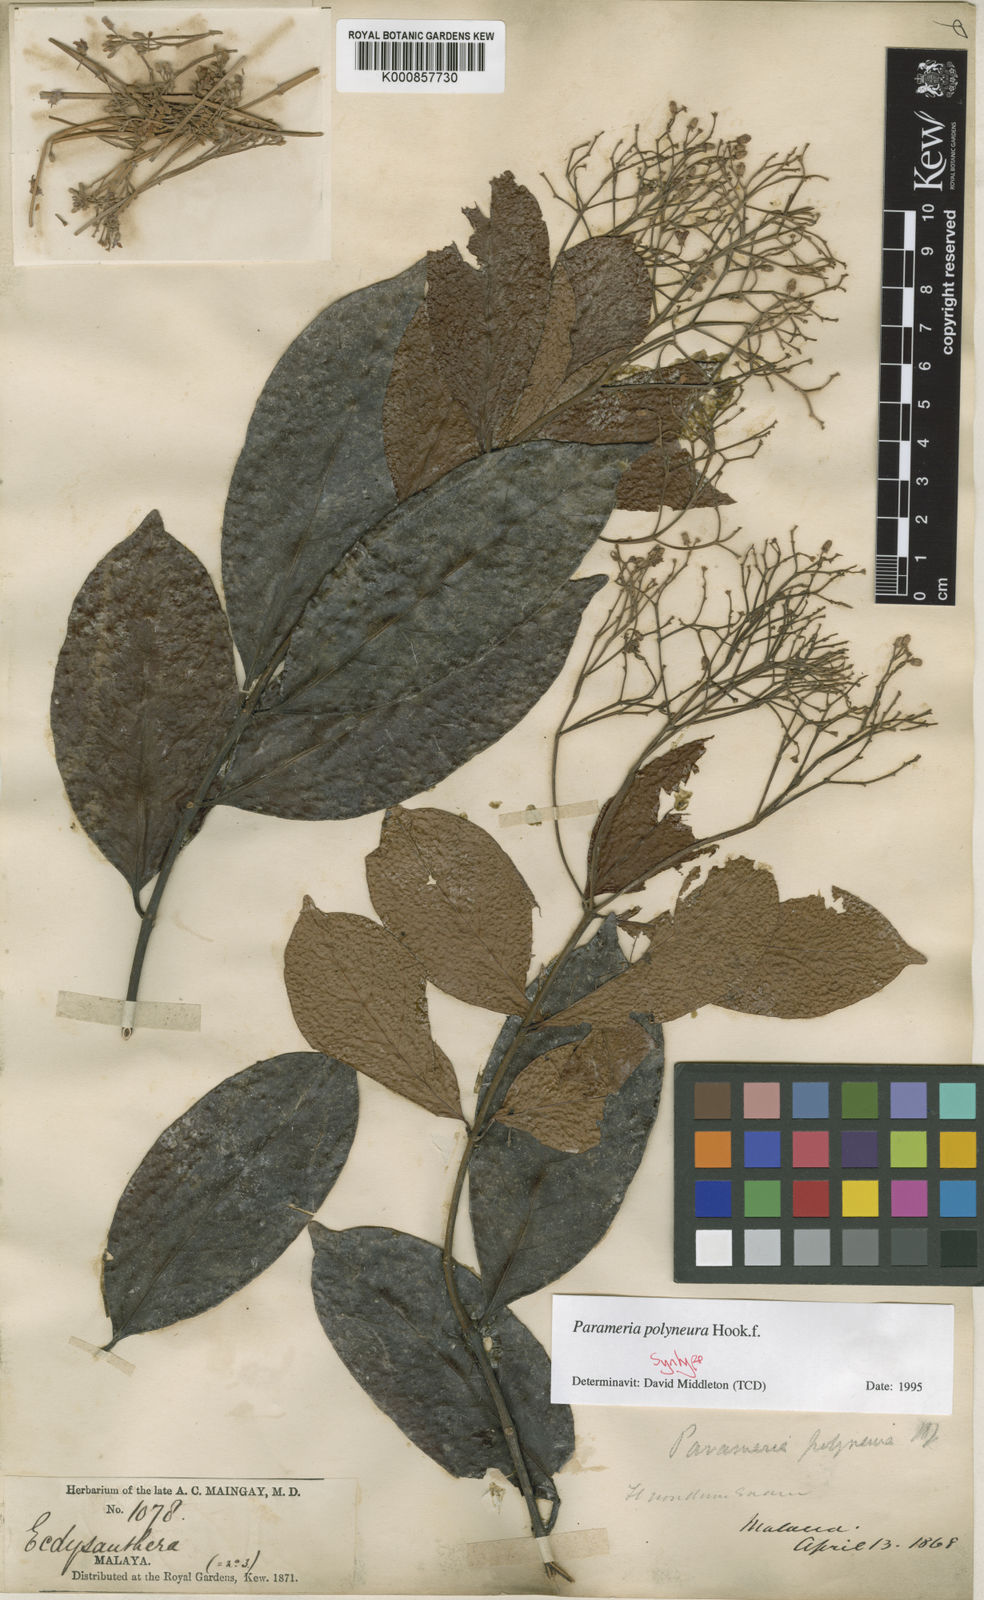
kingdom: Plantae
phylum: Tracheophyta
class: Magnoliopsida
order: Gentianales
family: Apocynaceae
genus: Urceola
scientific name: Urceola polyneura
